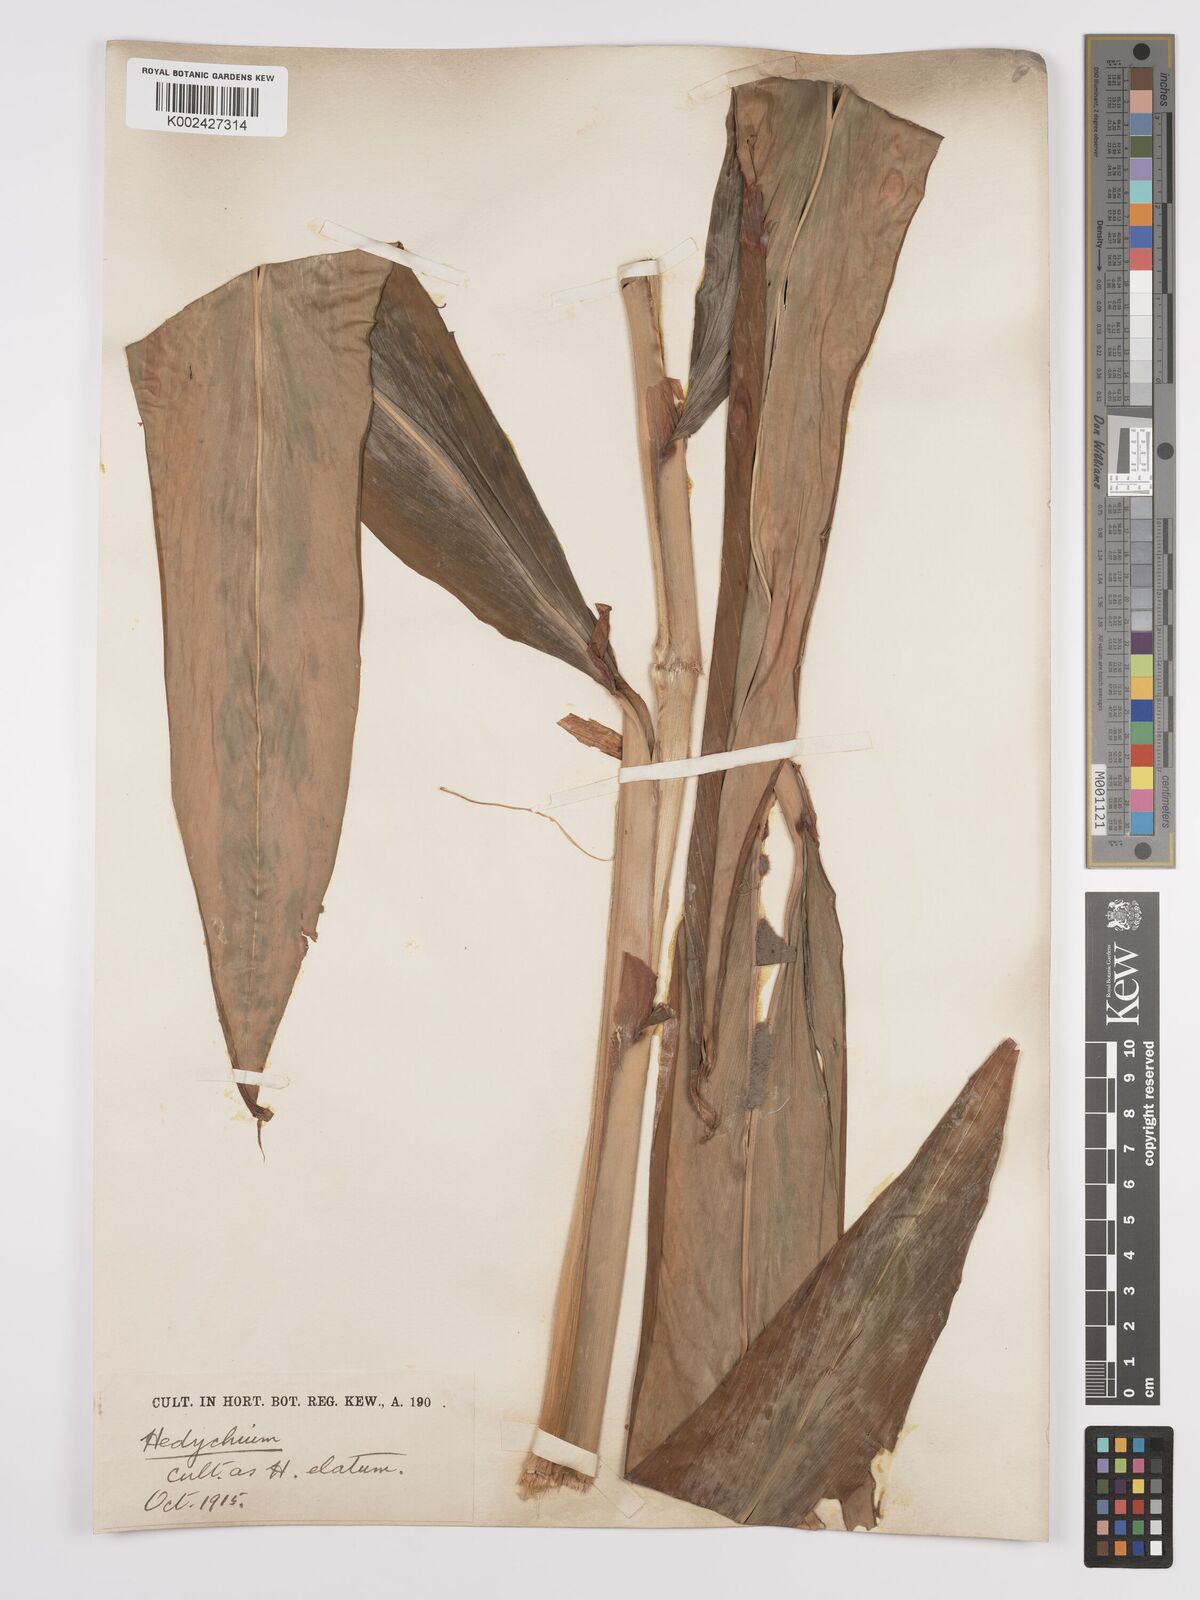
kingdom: Plantae
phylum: Tracheophyta
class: Liliopsida
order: Zingiberales
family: Zingiberaceae
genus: Hedychium
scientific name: Hedychium elatum
